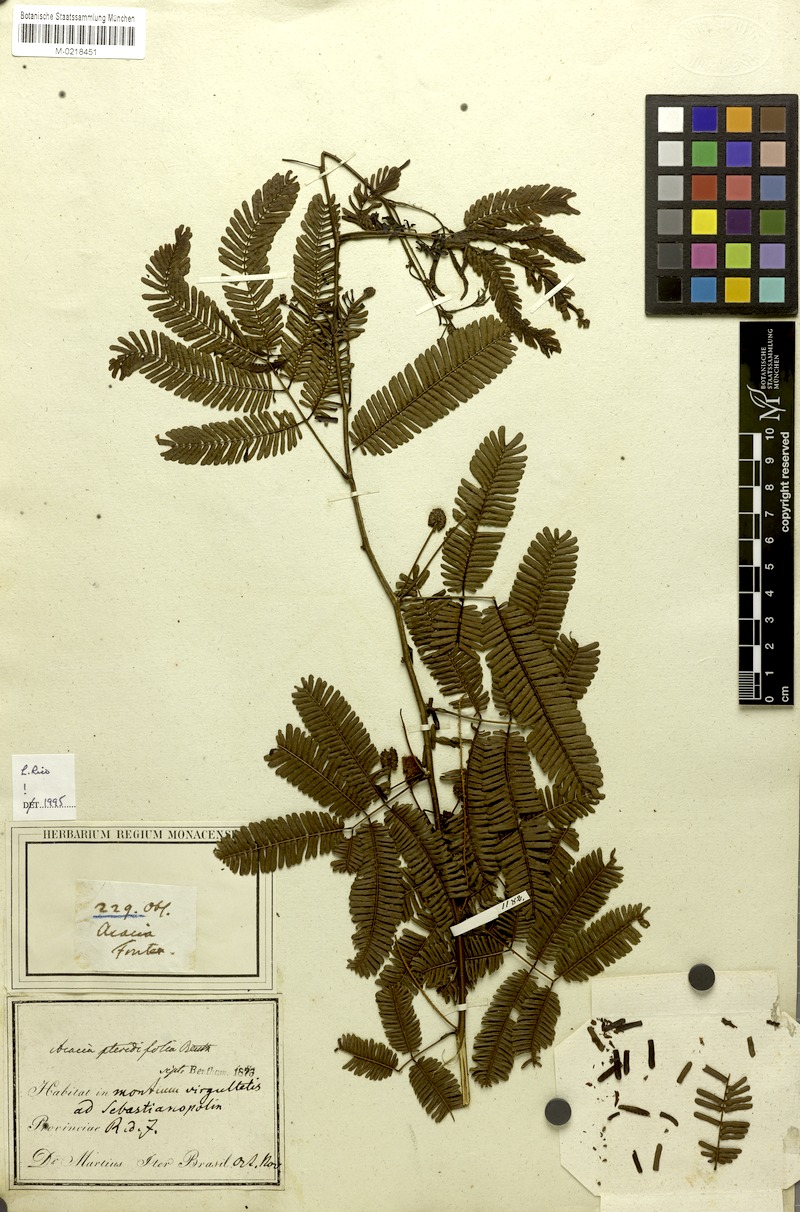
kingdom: Plantae
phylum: Tracheophyta
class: Magnoliopsida
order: Fabales
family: Fabaceae
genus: Senegalia
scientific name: Senegalia pteridifolia
